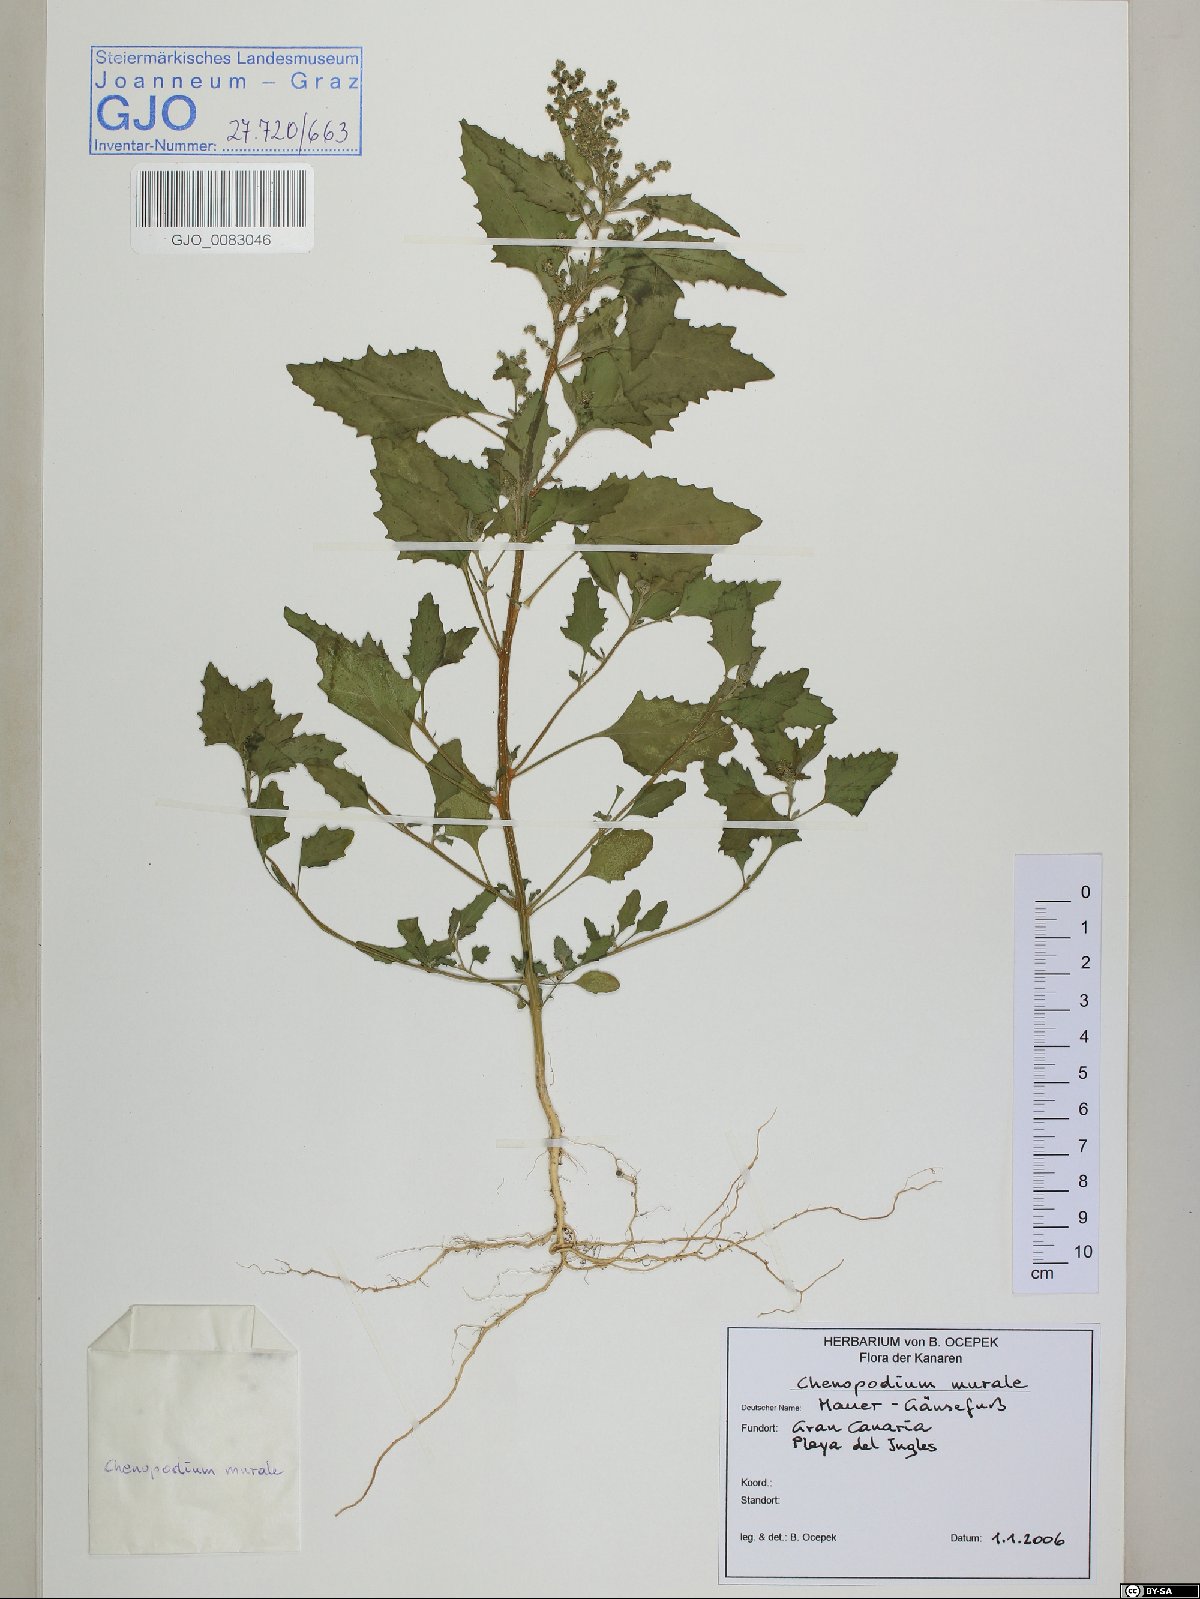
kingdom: Plantae
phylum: Tracheophyta
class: Magnoliopsida
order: Caryophyllales
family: Amaranthaceae
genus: Chenopodiastrum
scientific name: Chenopodiastrum murale
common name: Sowbane
